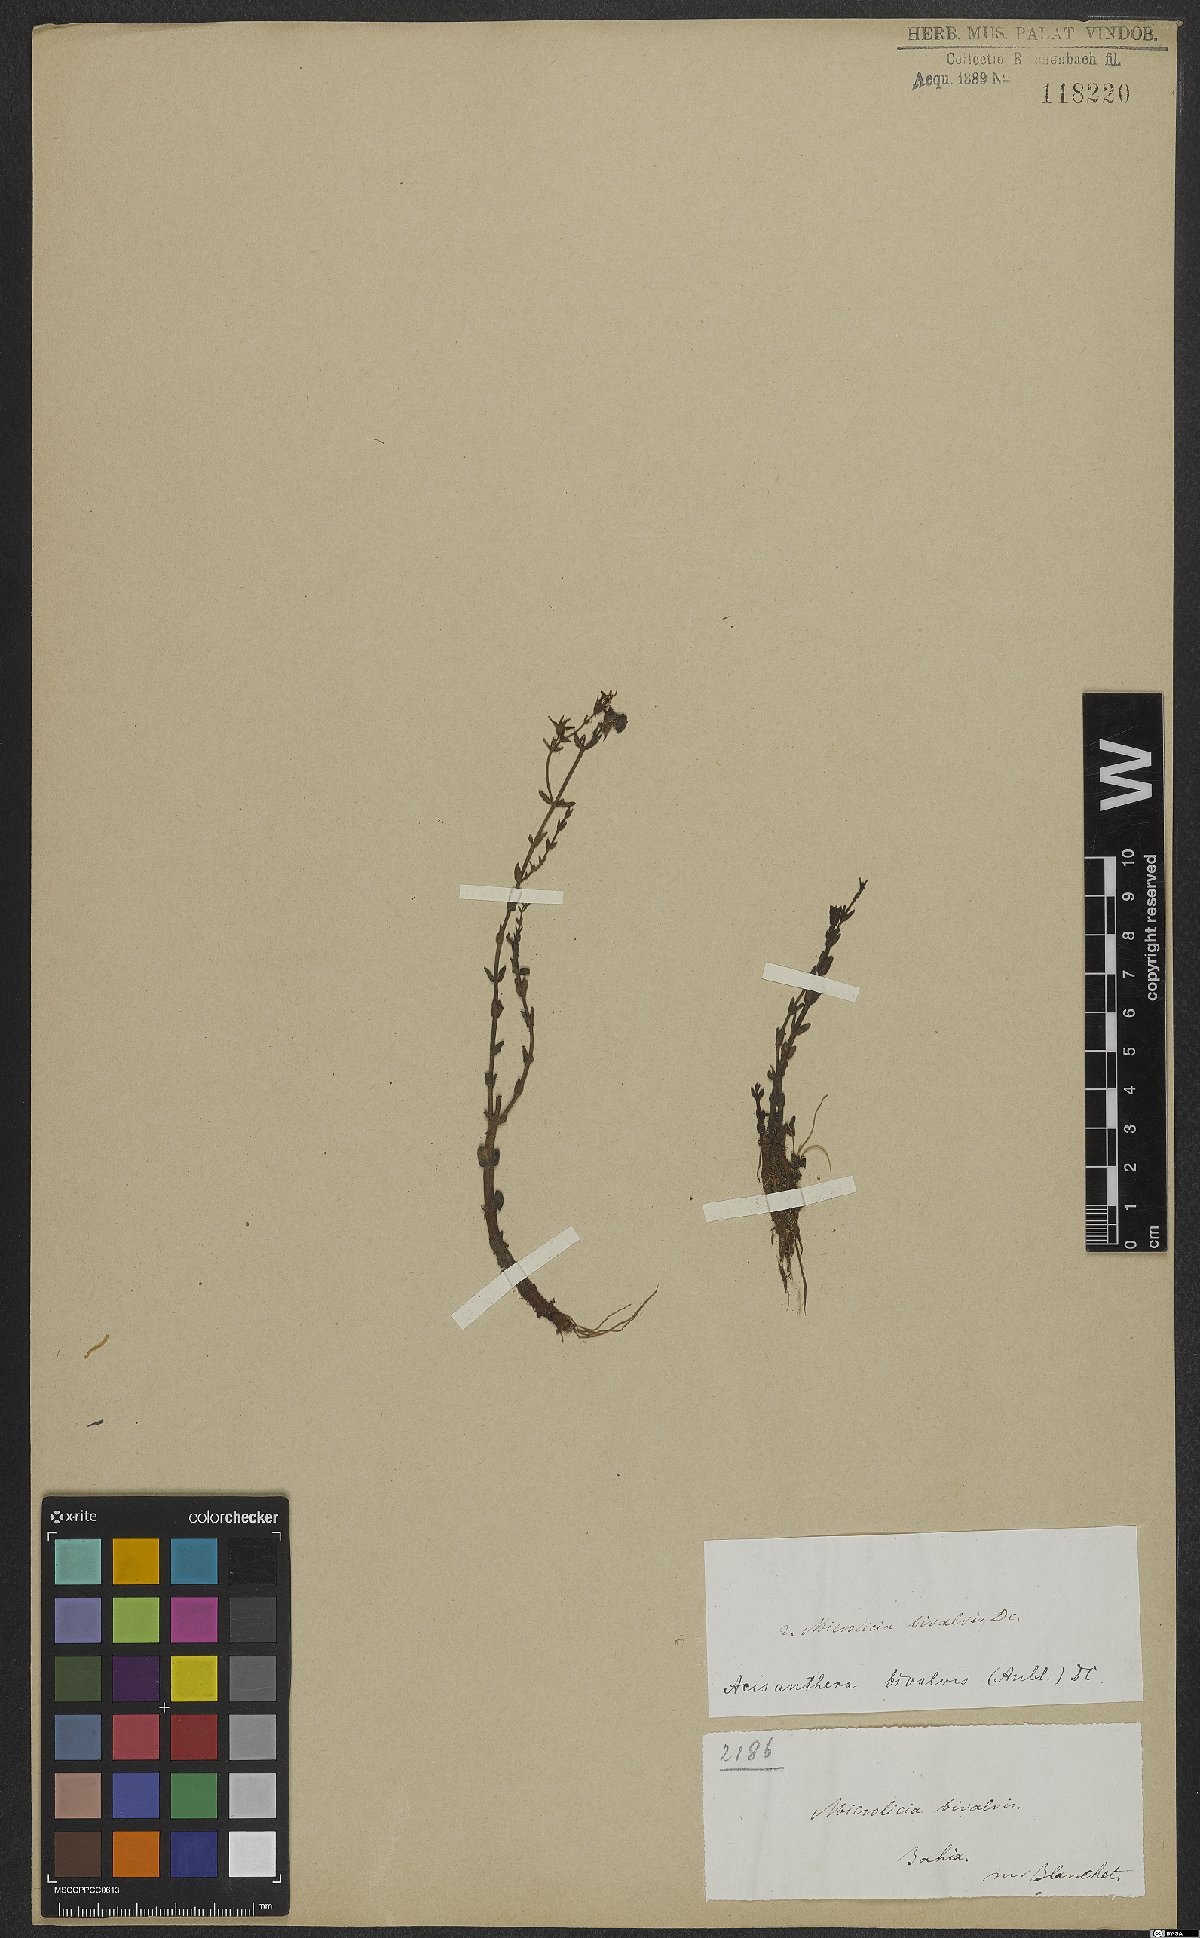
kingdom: Plantae
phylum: Tracheophyta
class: Magnoliopsida
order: Myrtales
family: Melastomataceae
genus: Noterophila
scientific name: Noterophila bivalvis
